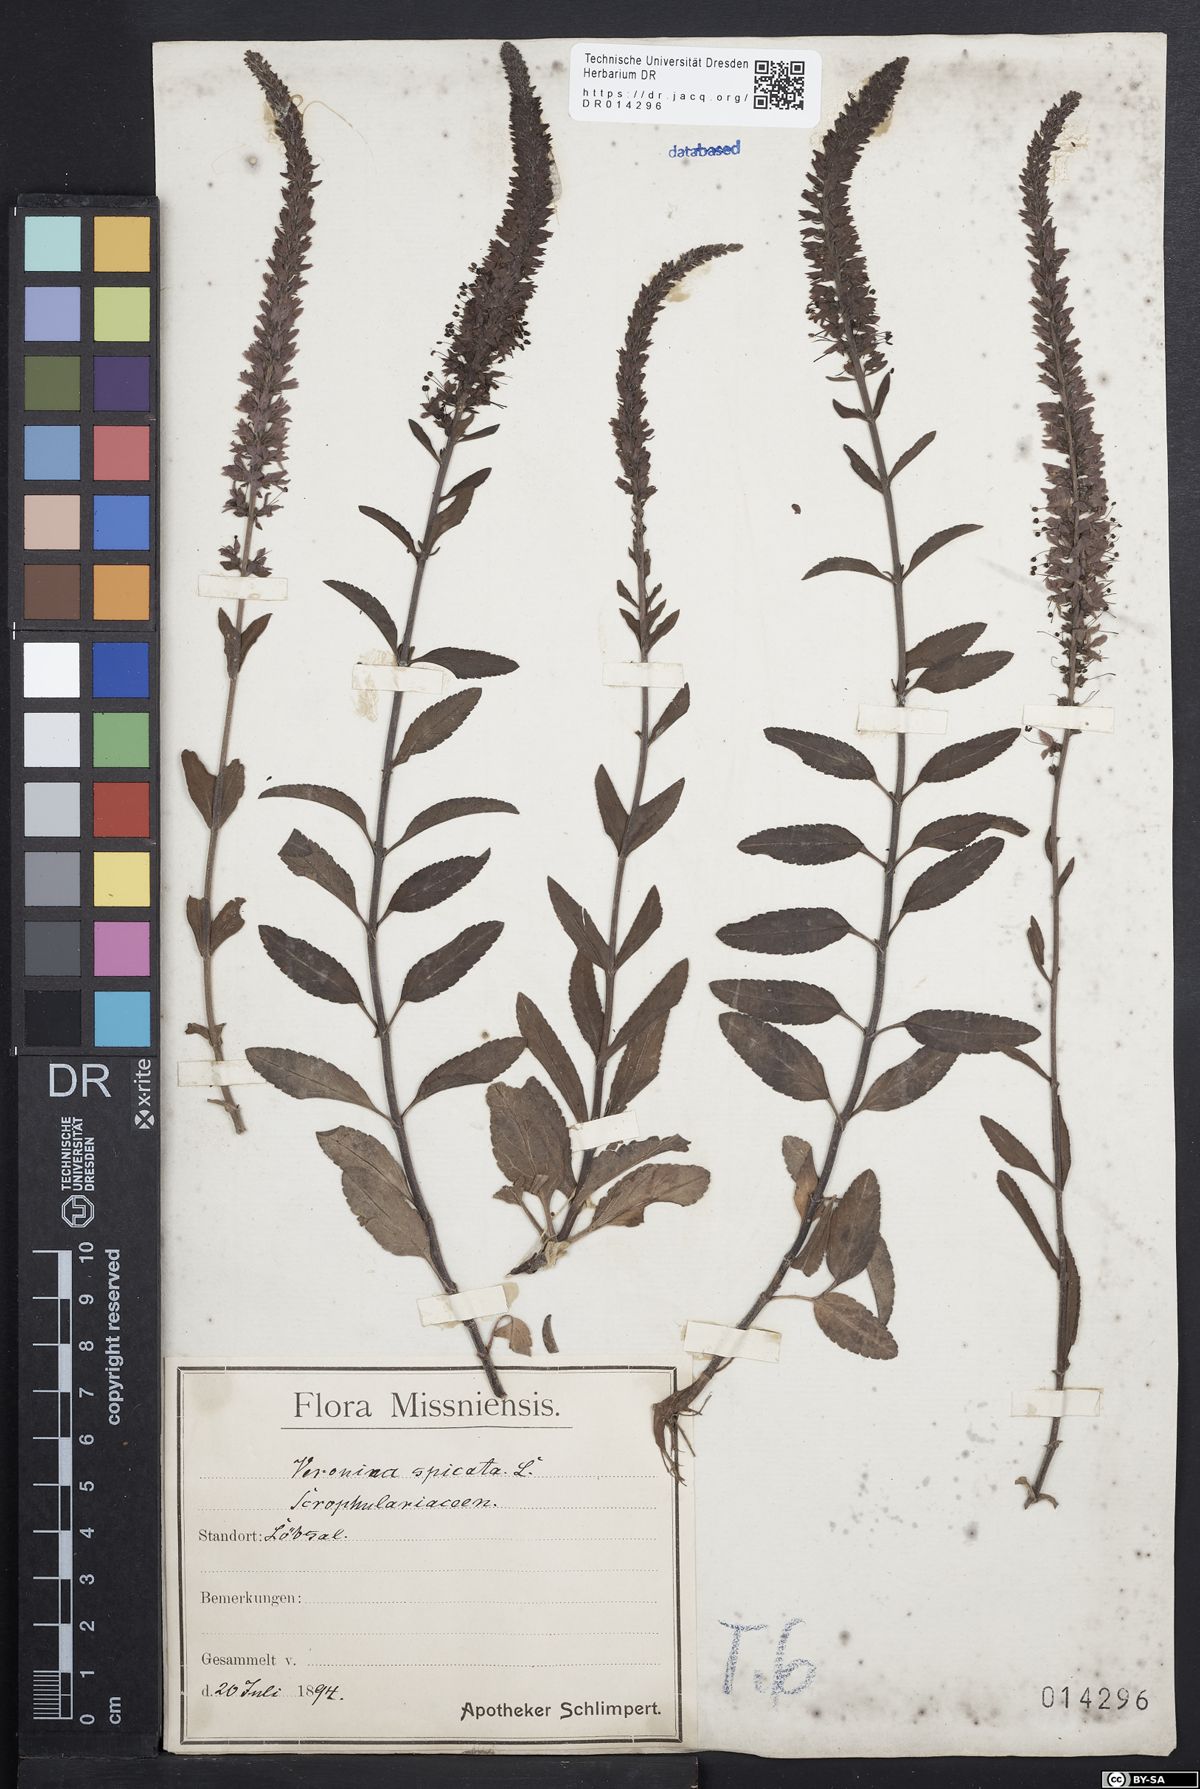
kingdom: Plantae
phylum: Tracheophyta
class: Magnoliopsida
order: Lamiales
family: Plantaginaceae
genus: Veronica
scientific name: Veronica spicata
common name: Spiked speedwell
